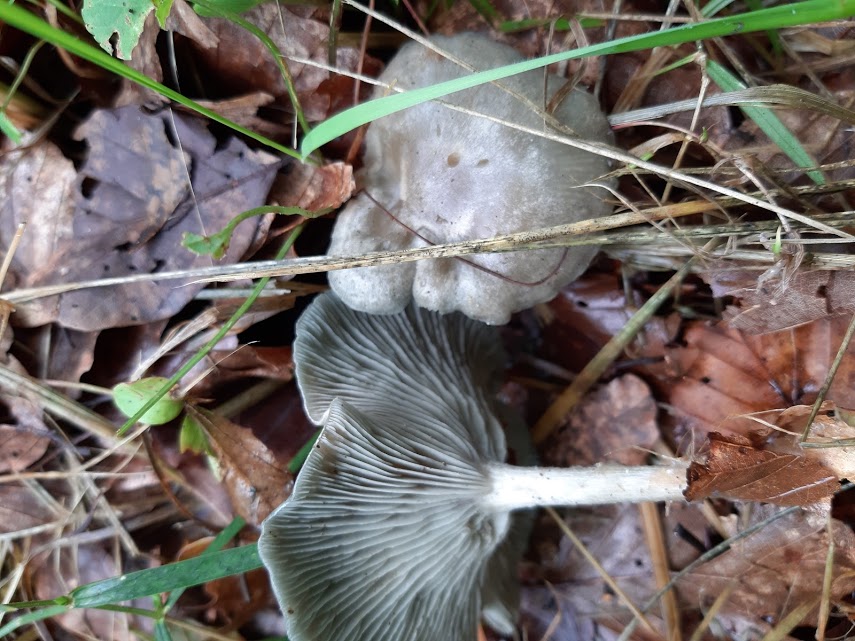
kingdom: Fungi
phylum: Basidiomycota
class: Agaricomycetes
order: Agaricales
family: Tricholomataceae
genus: Clitocybe
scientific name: Clitocybe odora
